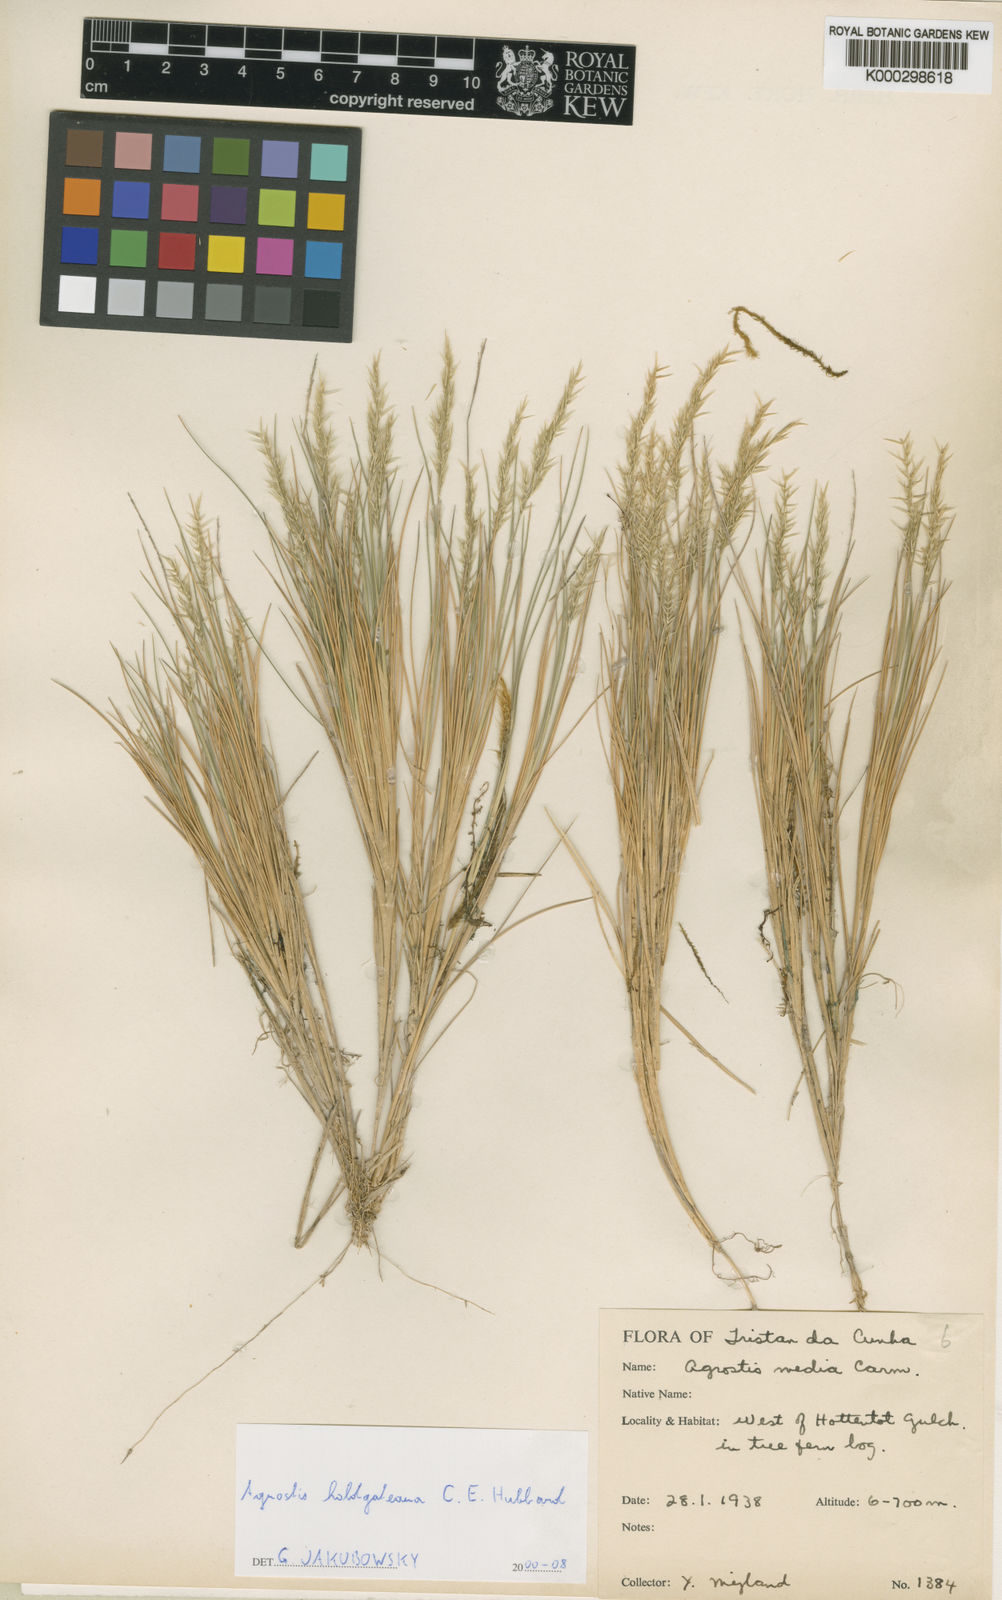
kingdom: Plantae
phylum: Tracheophyta
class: Liliopsida
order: Poales
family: Poaceae
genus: Agrostis
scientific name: Agrostis holgateana
